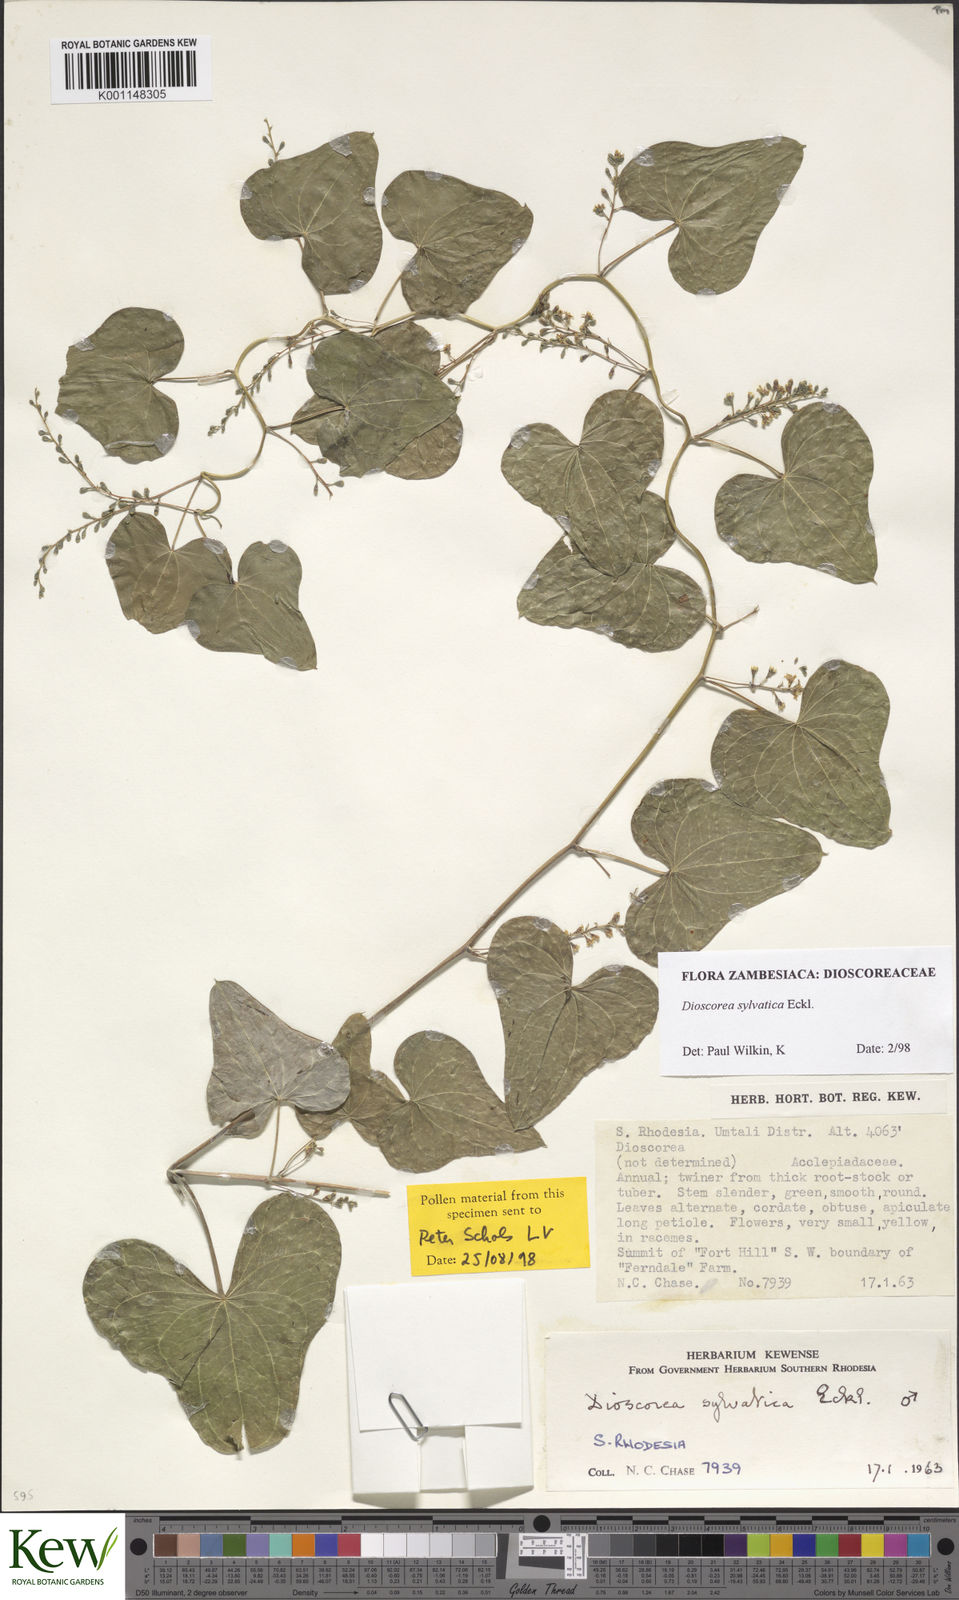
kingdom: Plantae
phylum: Tracheophyta
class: Liliopsida
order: Dioscoreales
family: Dioscoreaceae
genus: Dioscorea
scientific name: Dioscorea sylvatica
